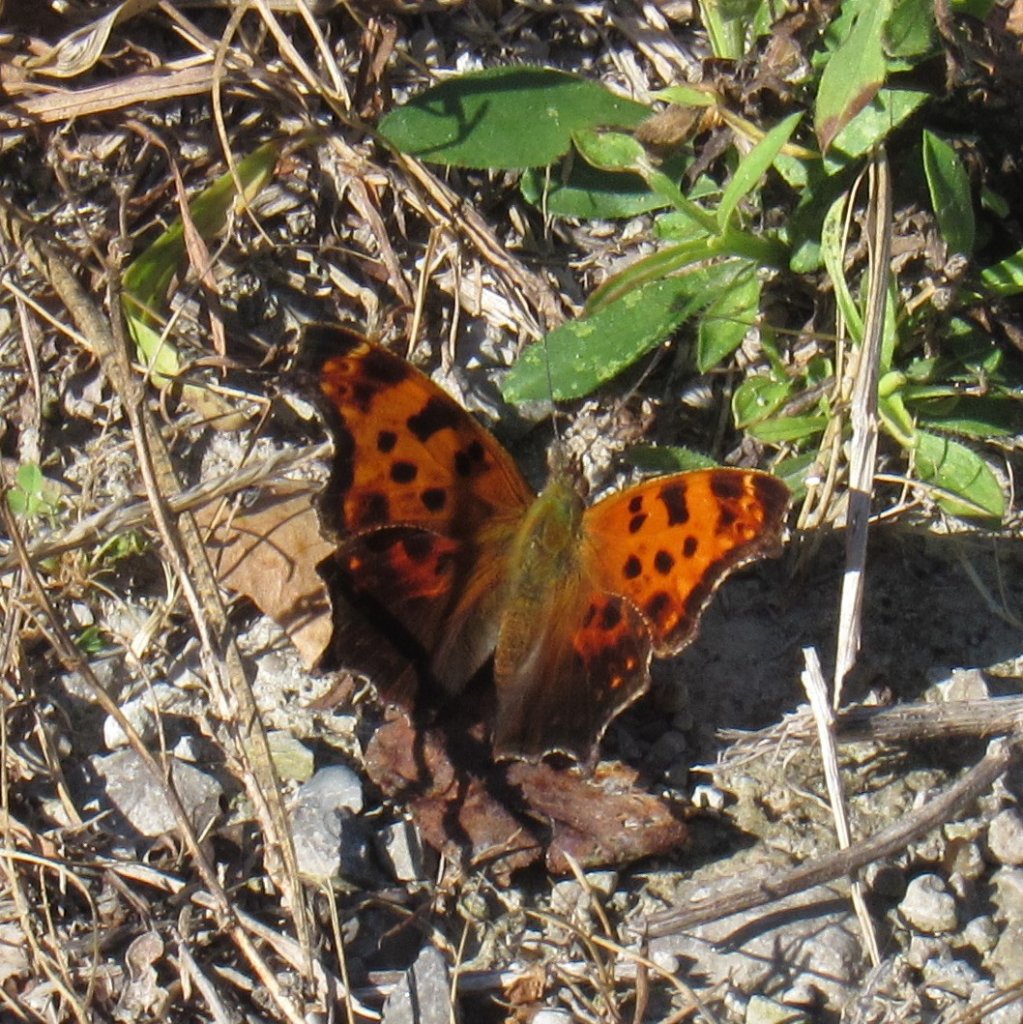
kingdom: Animalia
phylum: Arthropoda
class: Insecta
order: Lepidoptera
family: Nymphalidae
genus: Polygonia
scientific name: Polygonia comma
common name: Eastern Comma
